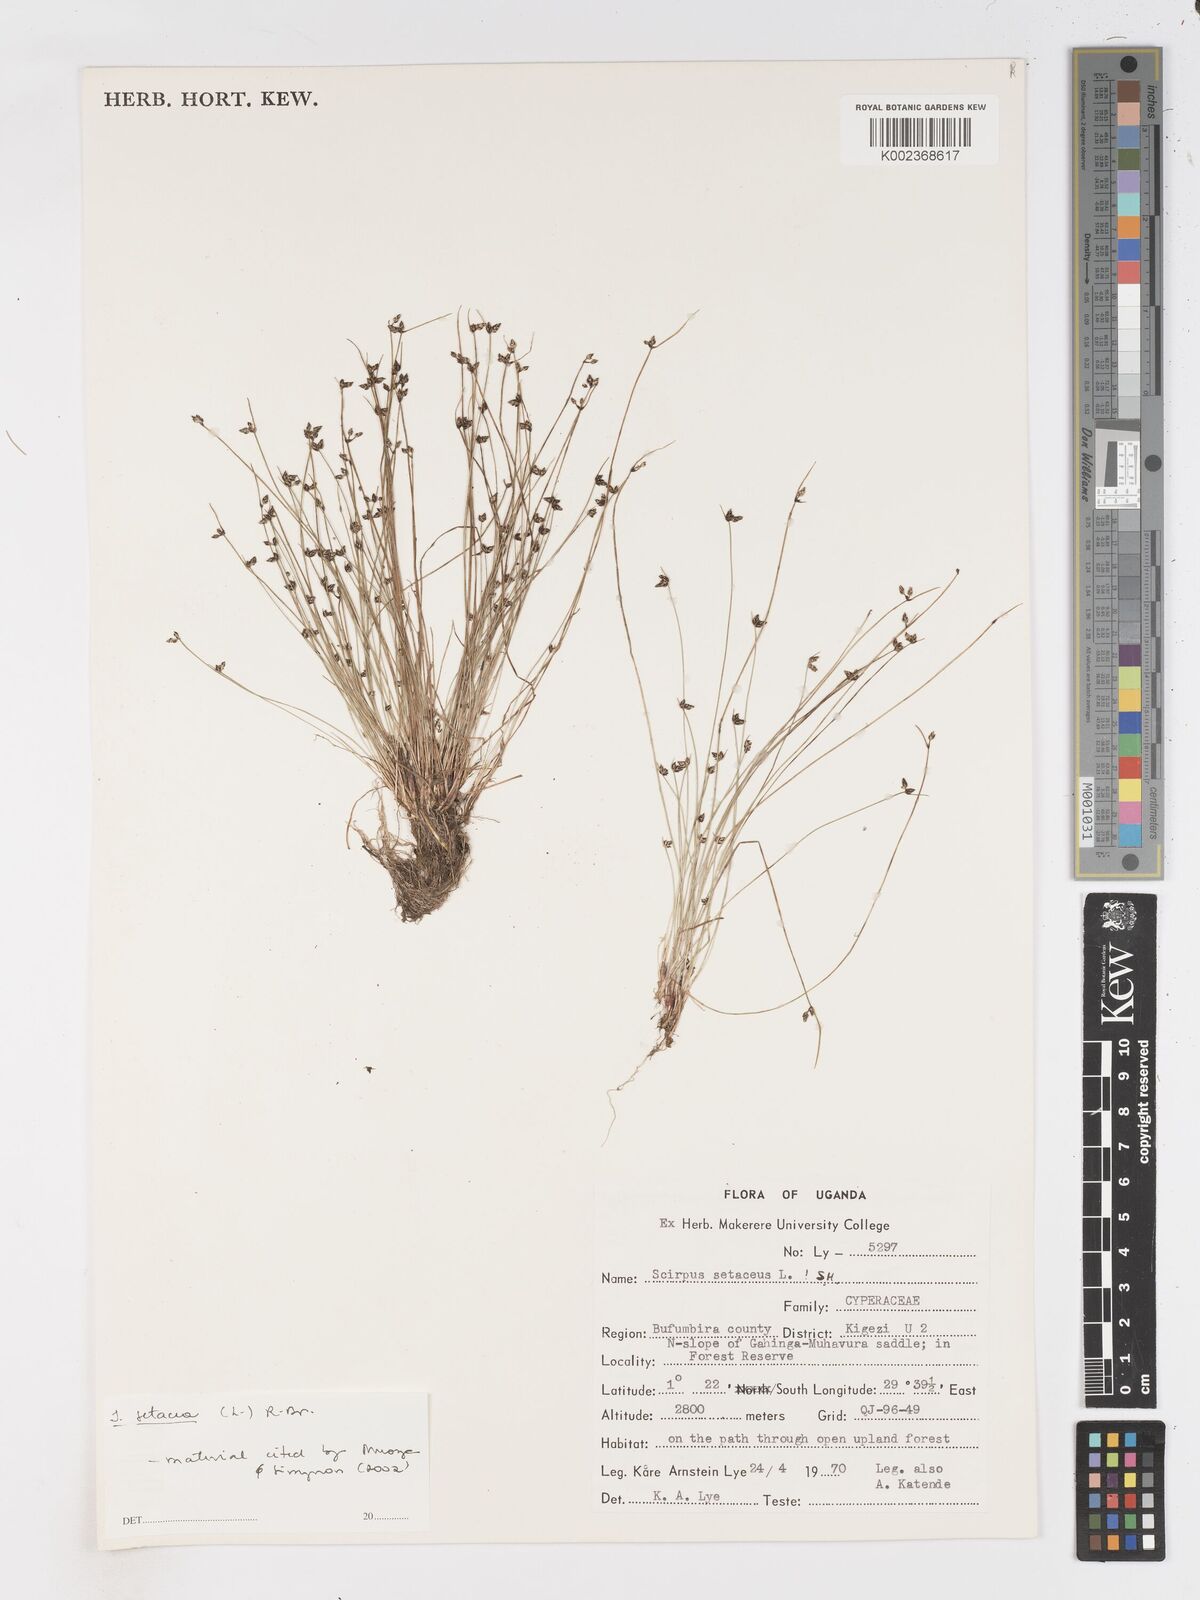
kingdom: Plantae
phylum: Tracheophyta
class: Liliopsida
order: Poales
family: Cyperaceae
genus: Isolepis
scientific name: Isolepis setacea
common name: Bristle club-rush
